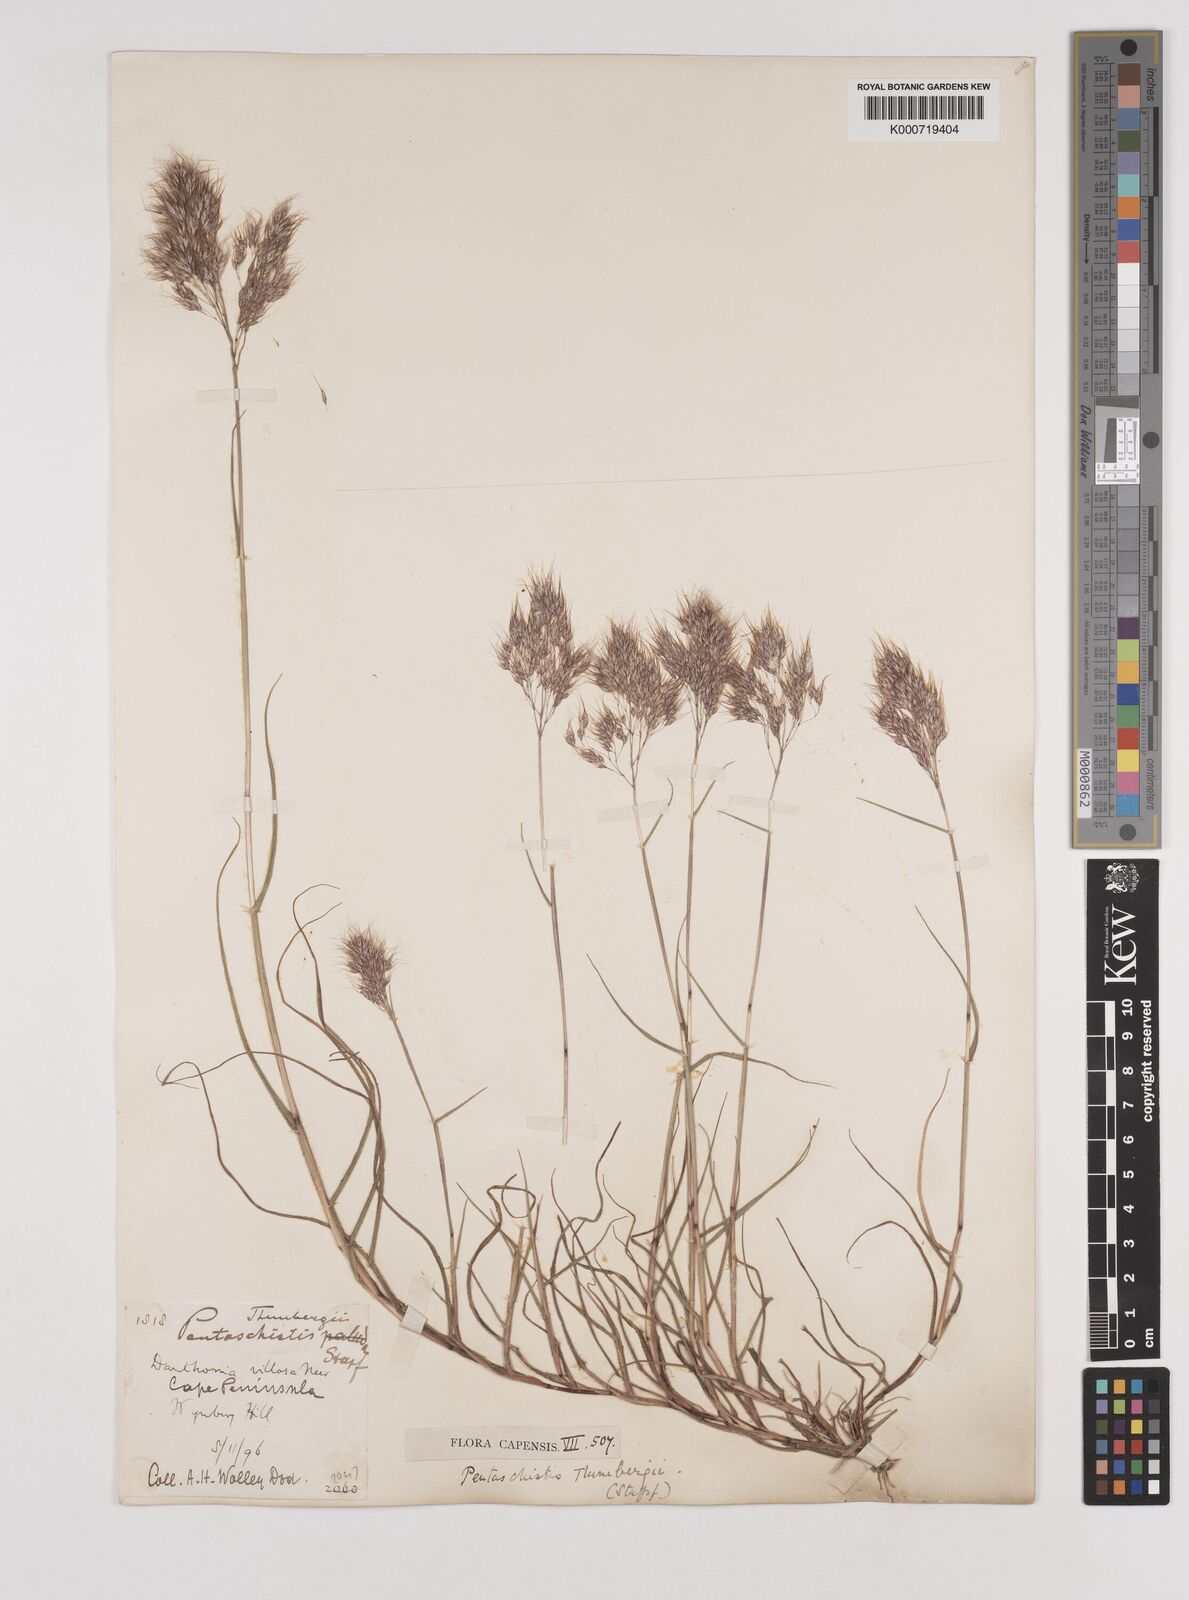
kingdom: Plantae
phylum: Tracheophyta
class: Liliopsida
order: Poales
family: Poaceae
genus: Pentameris
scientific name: Pentameris triseta
